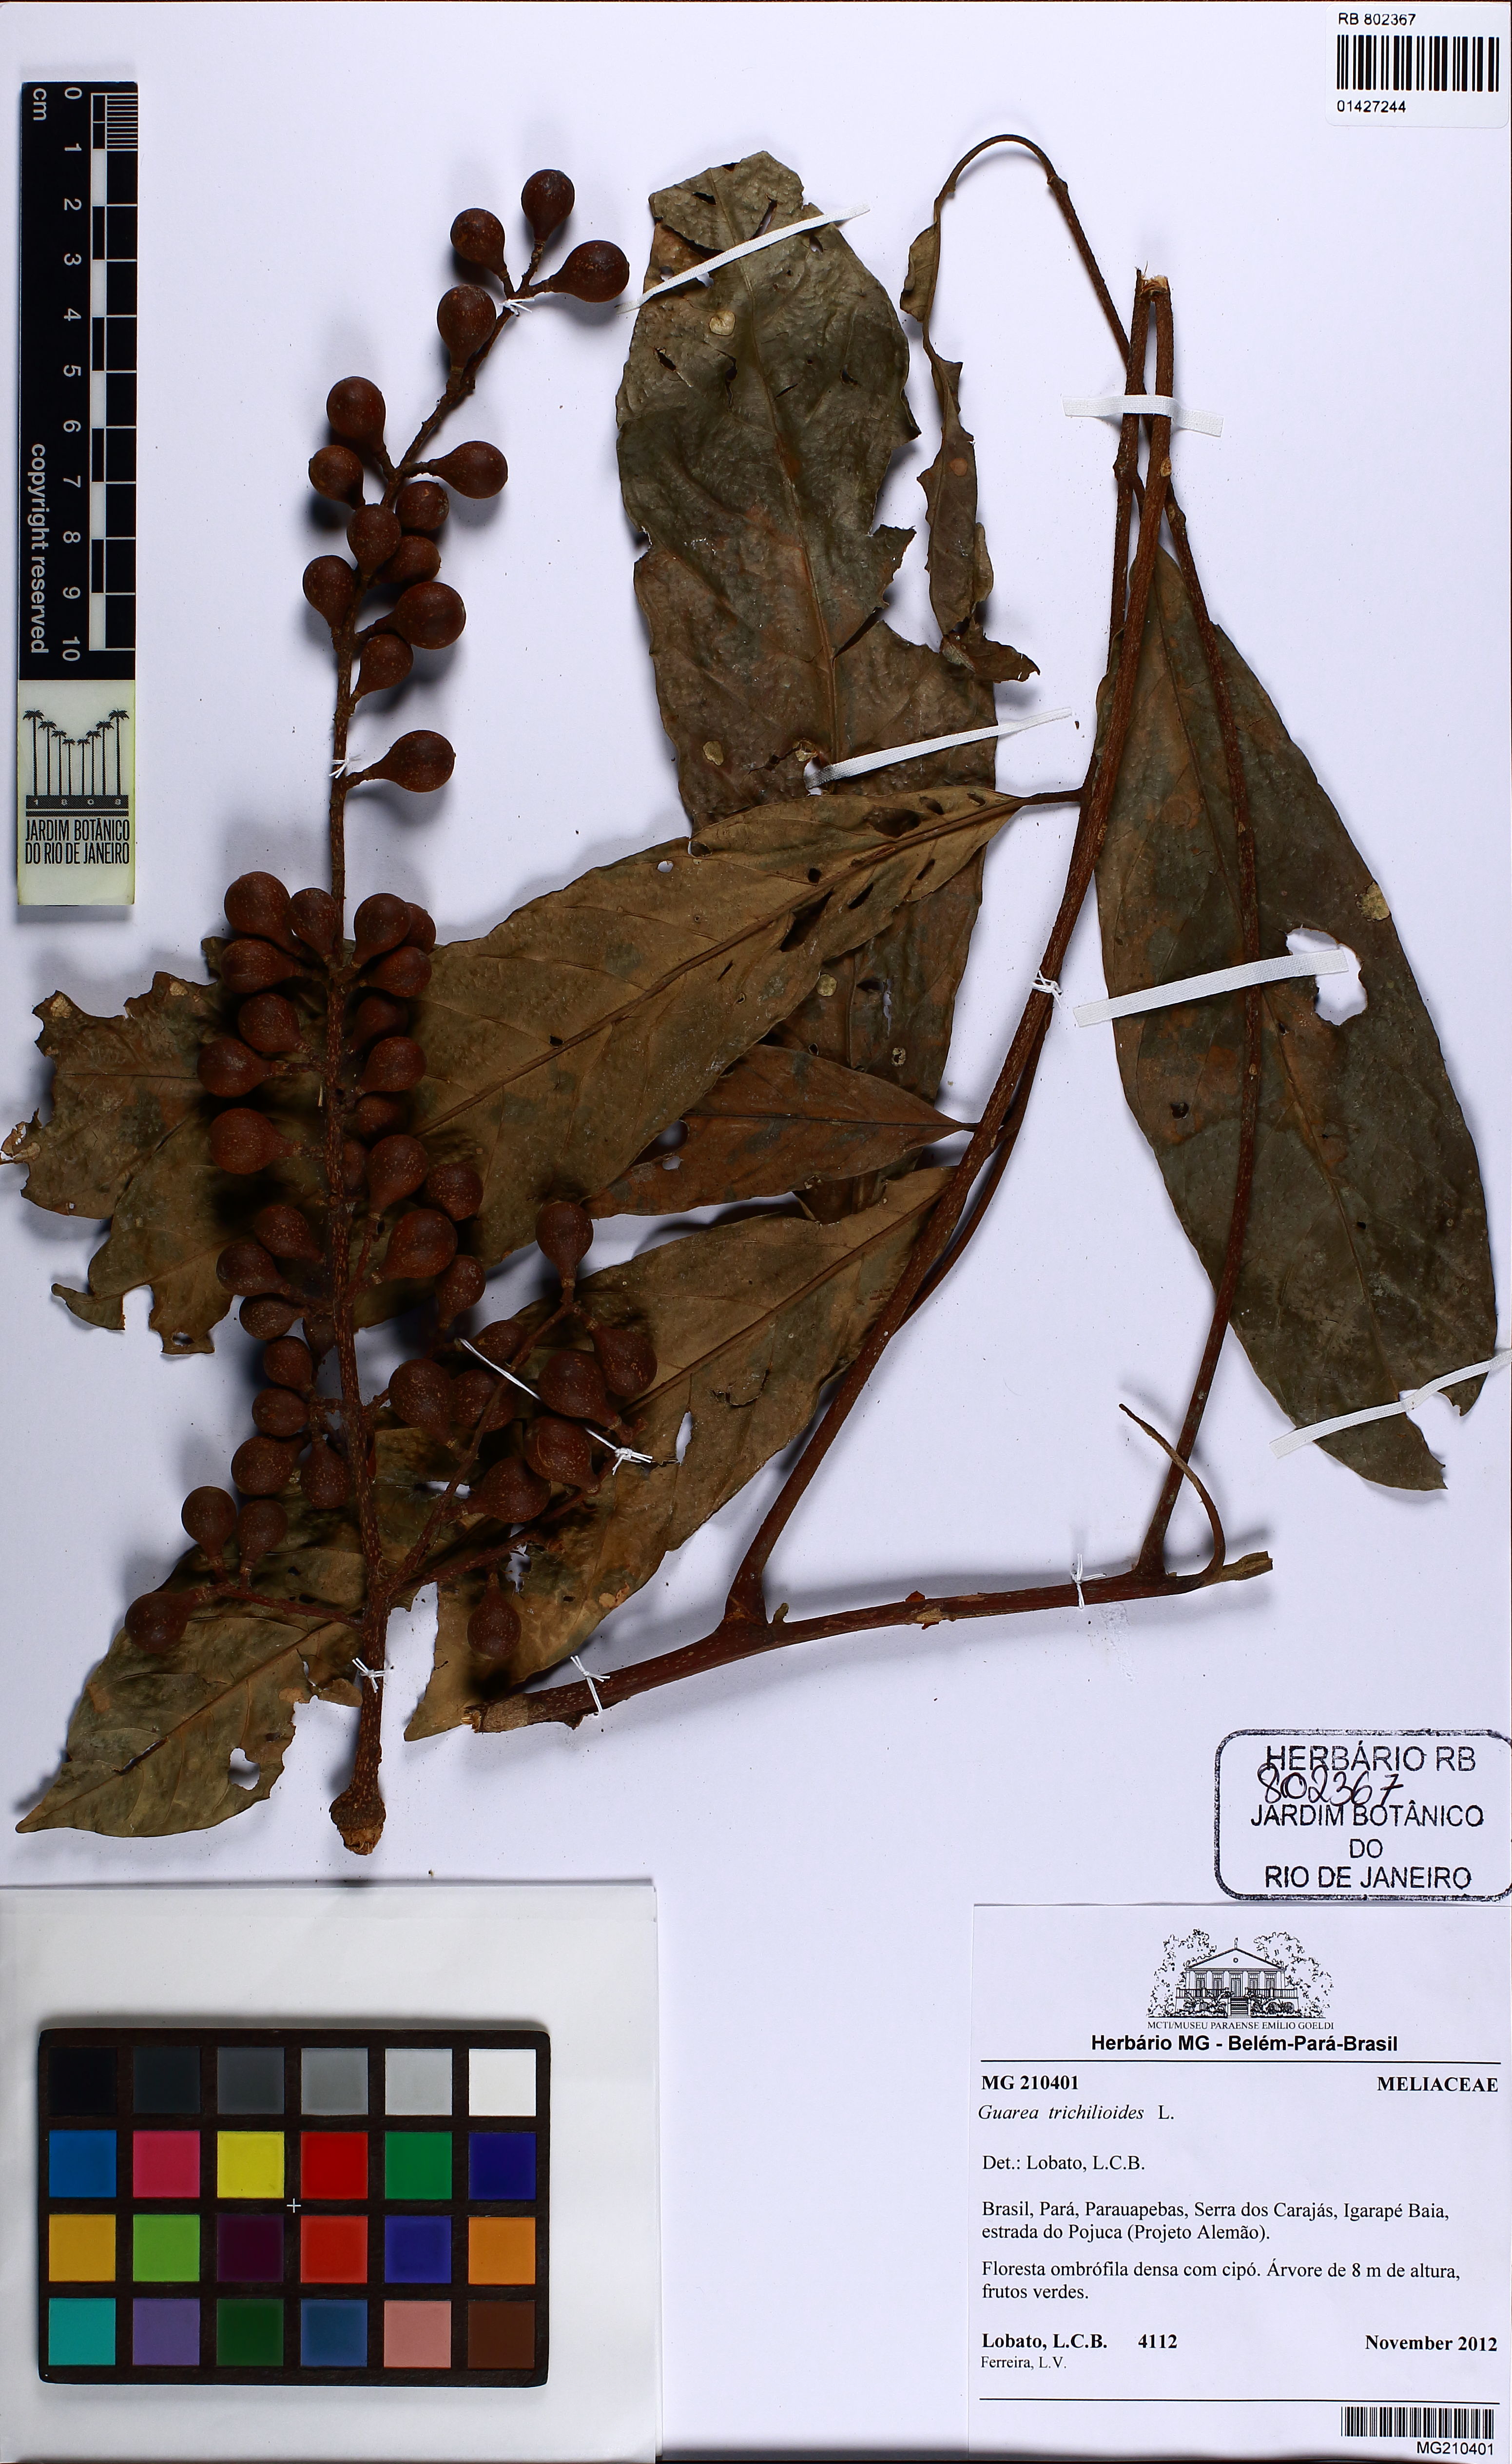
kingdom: Plantae
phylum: Tracheophyta
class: Magnoliopsida
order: Sapindales
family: Meliaceae
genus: Guarea
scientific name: Guarea guidonia
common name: American muskwood
